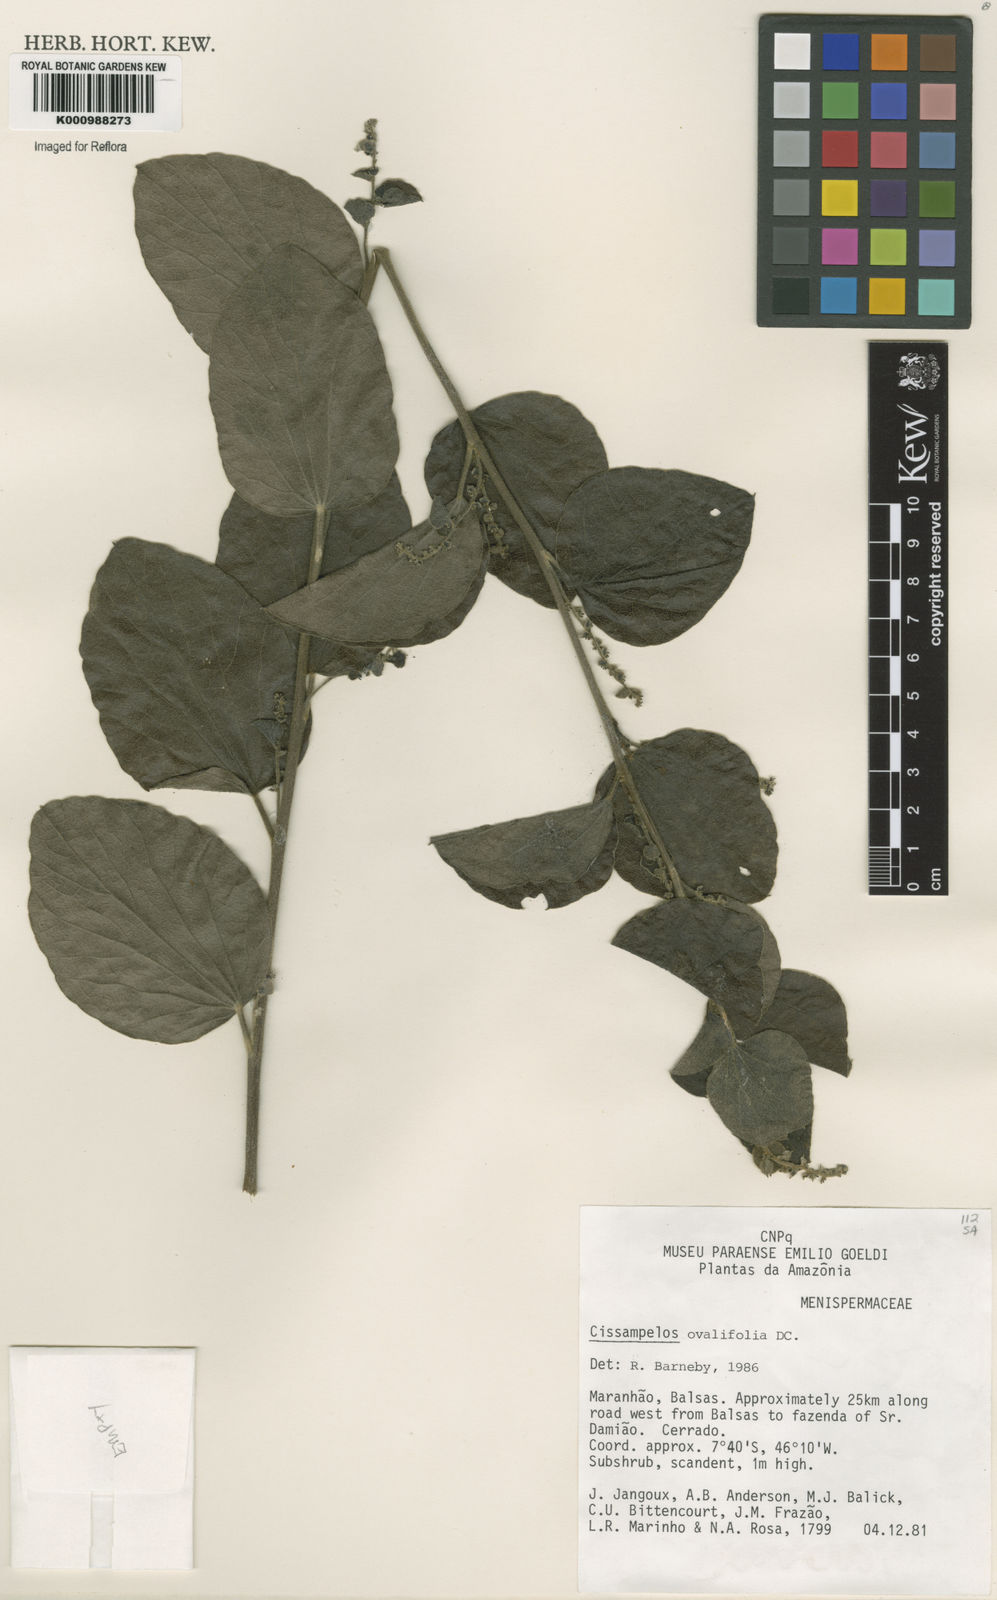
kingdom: Plantae
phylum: Tracheophyta
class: Magnoliopsida
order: Ranunculales
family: Menispermaceae
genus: Cissampelos
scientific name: Cissampelos ovalifolia
